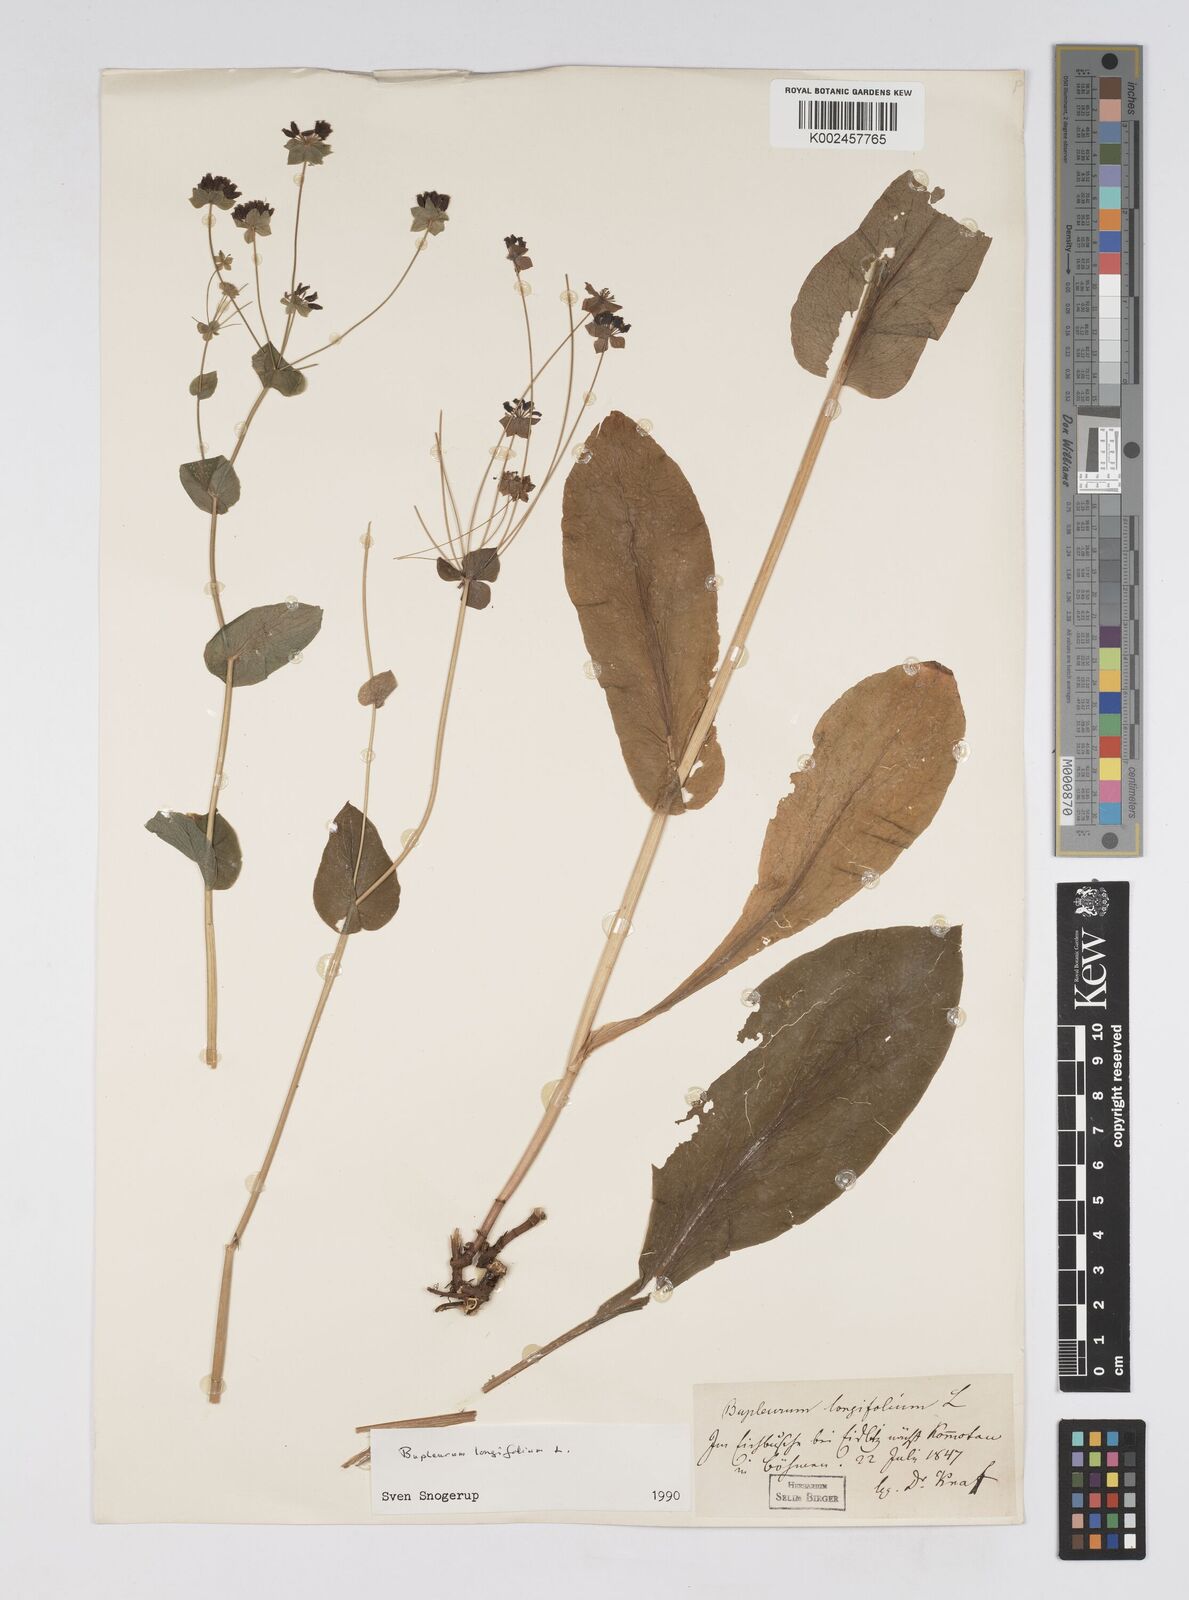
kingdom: Plantae
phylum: Tracheophyta
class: Magnoliopsida
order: Apiales
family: Apiaceae
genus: Bupleurum
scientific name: Bupleurum longifolium
